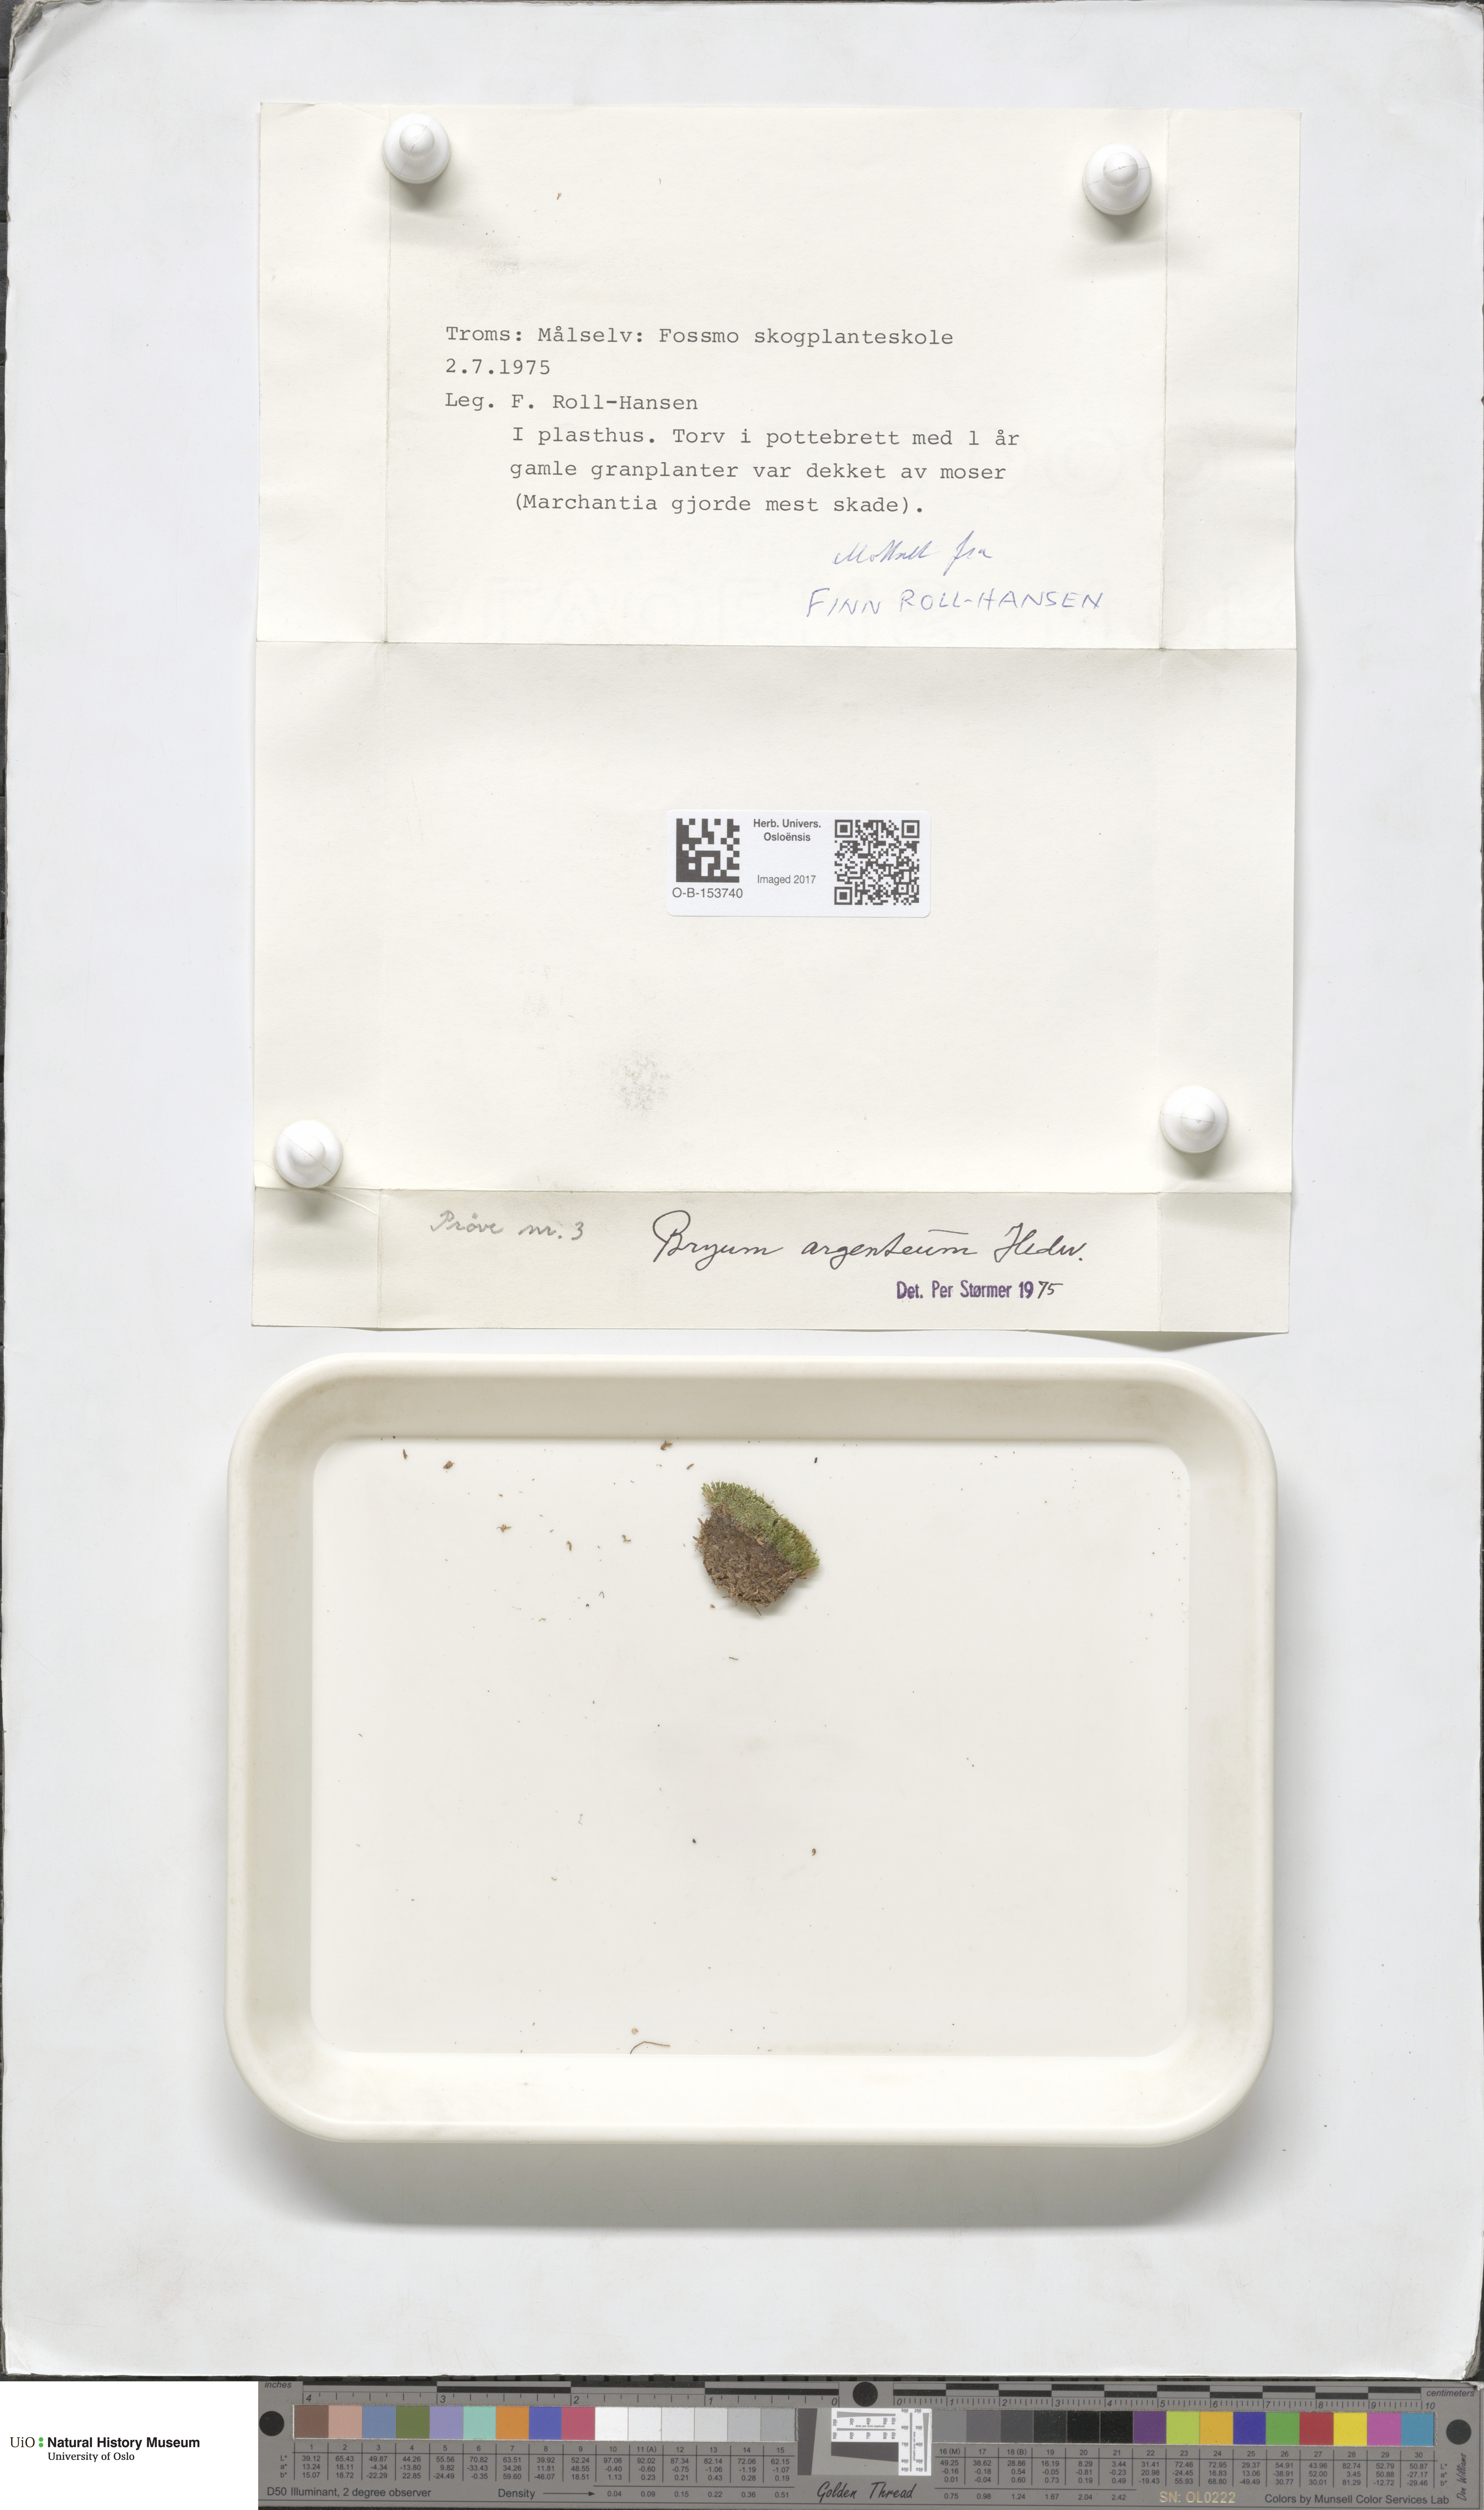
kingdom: Plantae
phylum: Bryophyta
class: Bryopsida
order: Bryales
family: Bryaceae
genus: Bryum
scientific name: Bryum argenteum
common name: Silver-moss
